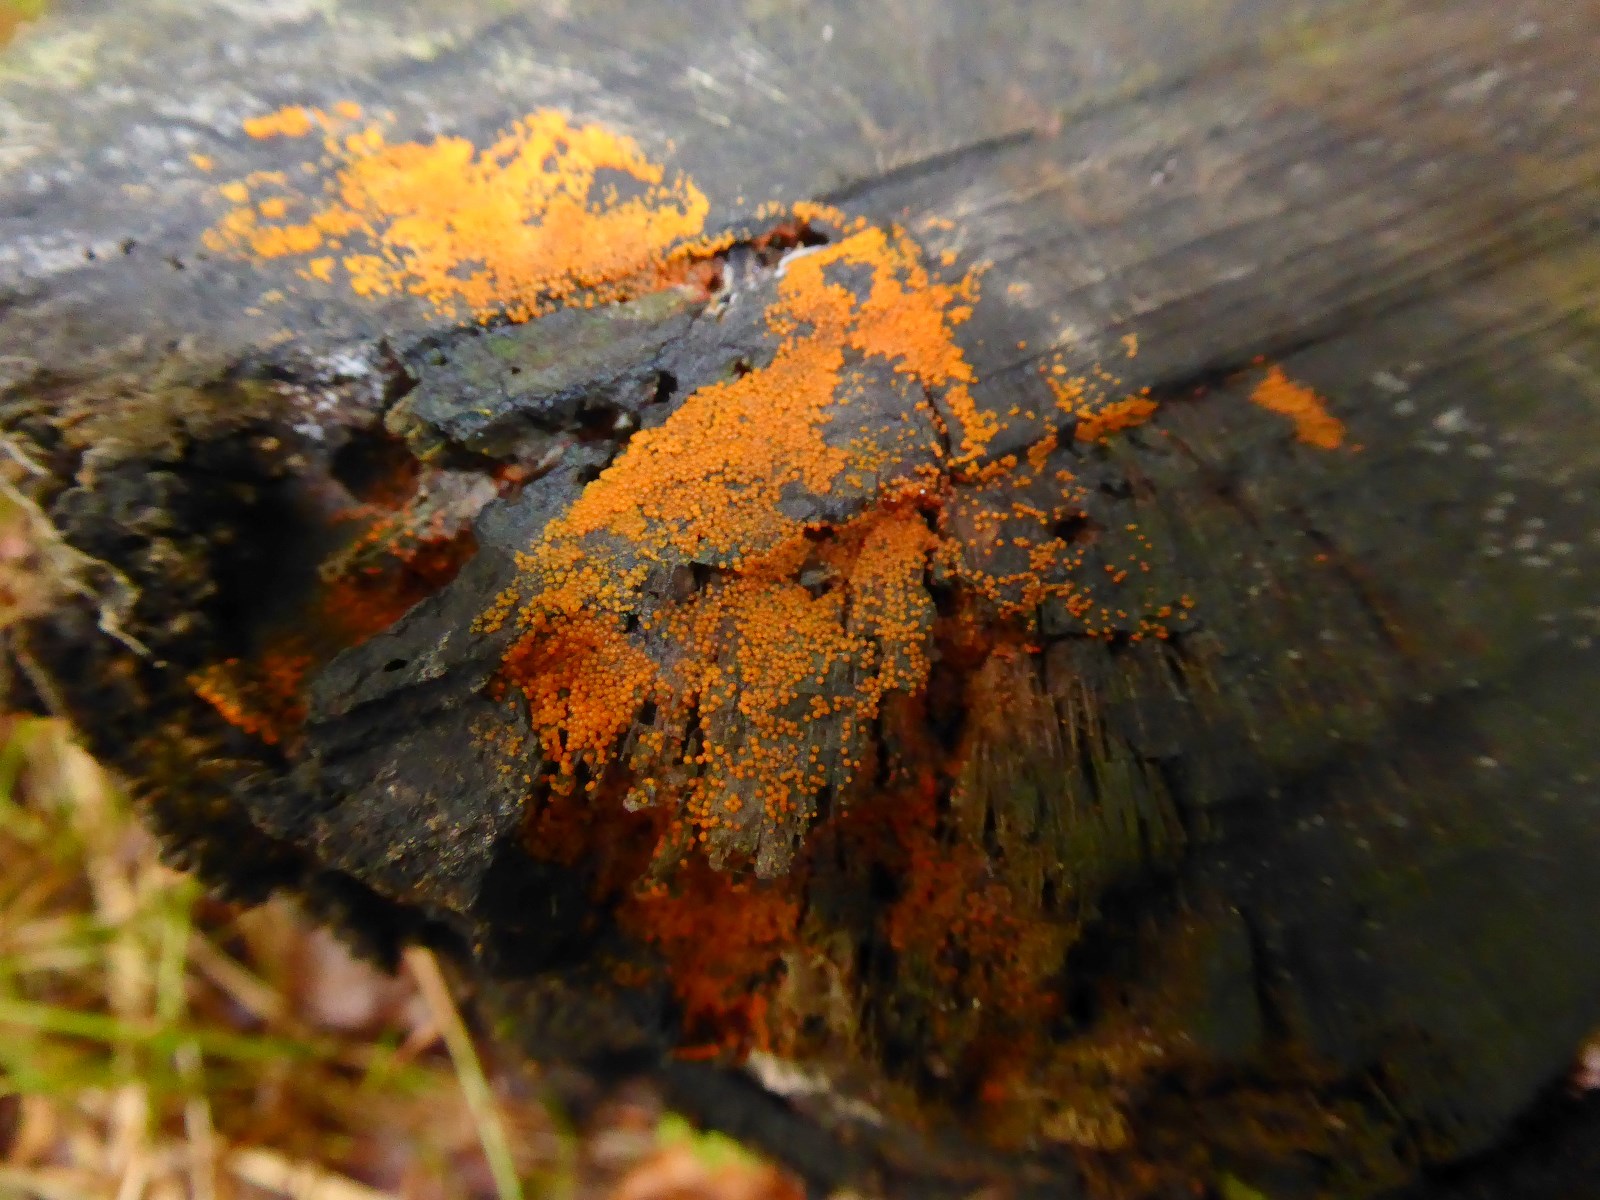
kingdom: Fungi
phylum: Ascomycota
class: Sordariomycetes
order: Hypocreales
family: Nectriaceae
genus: Hydropisphaera
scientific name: Hydropisphaera peziza
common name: skålformet gyldenkerne
